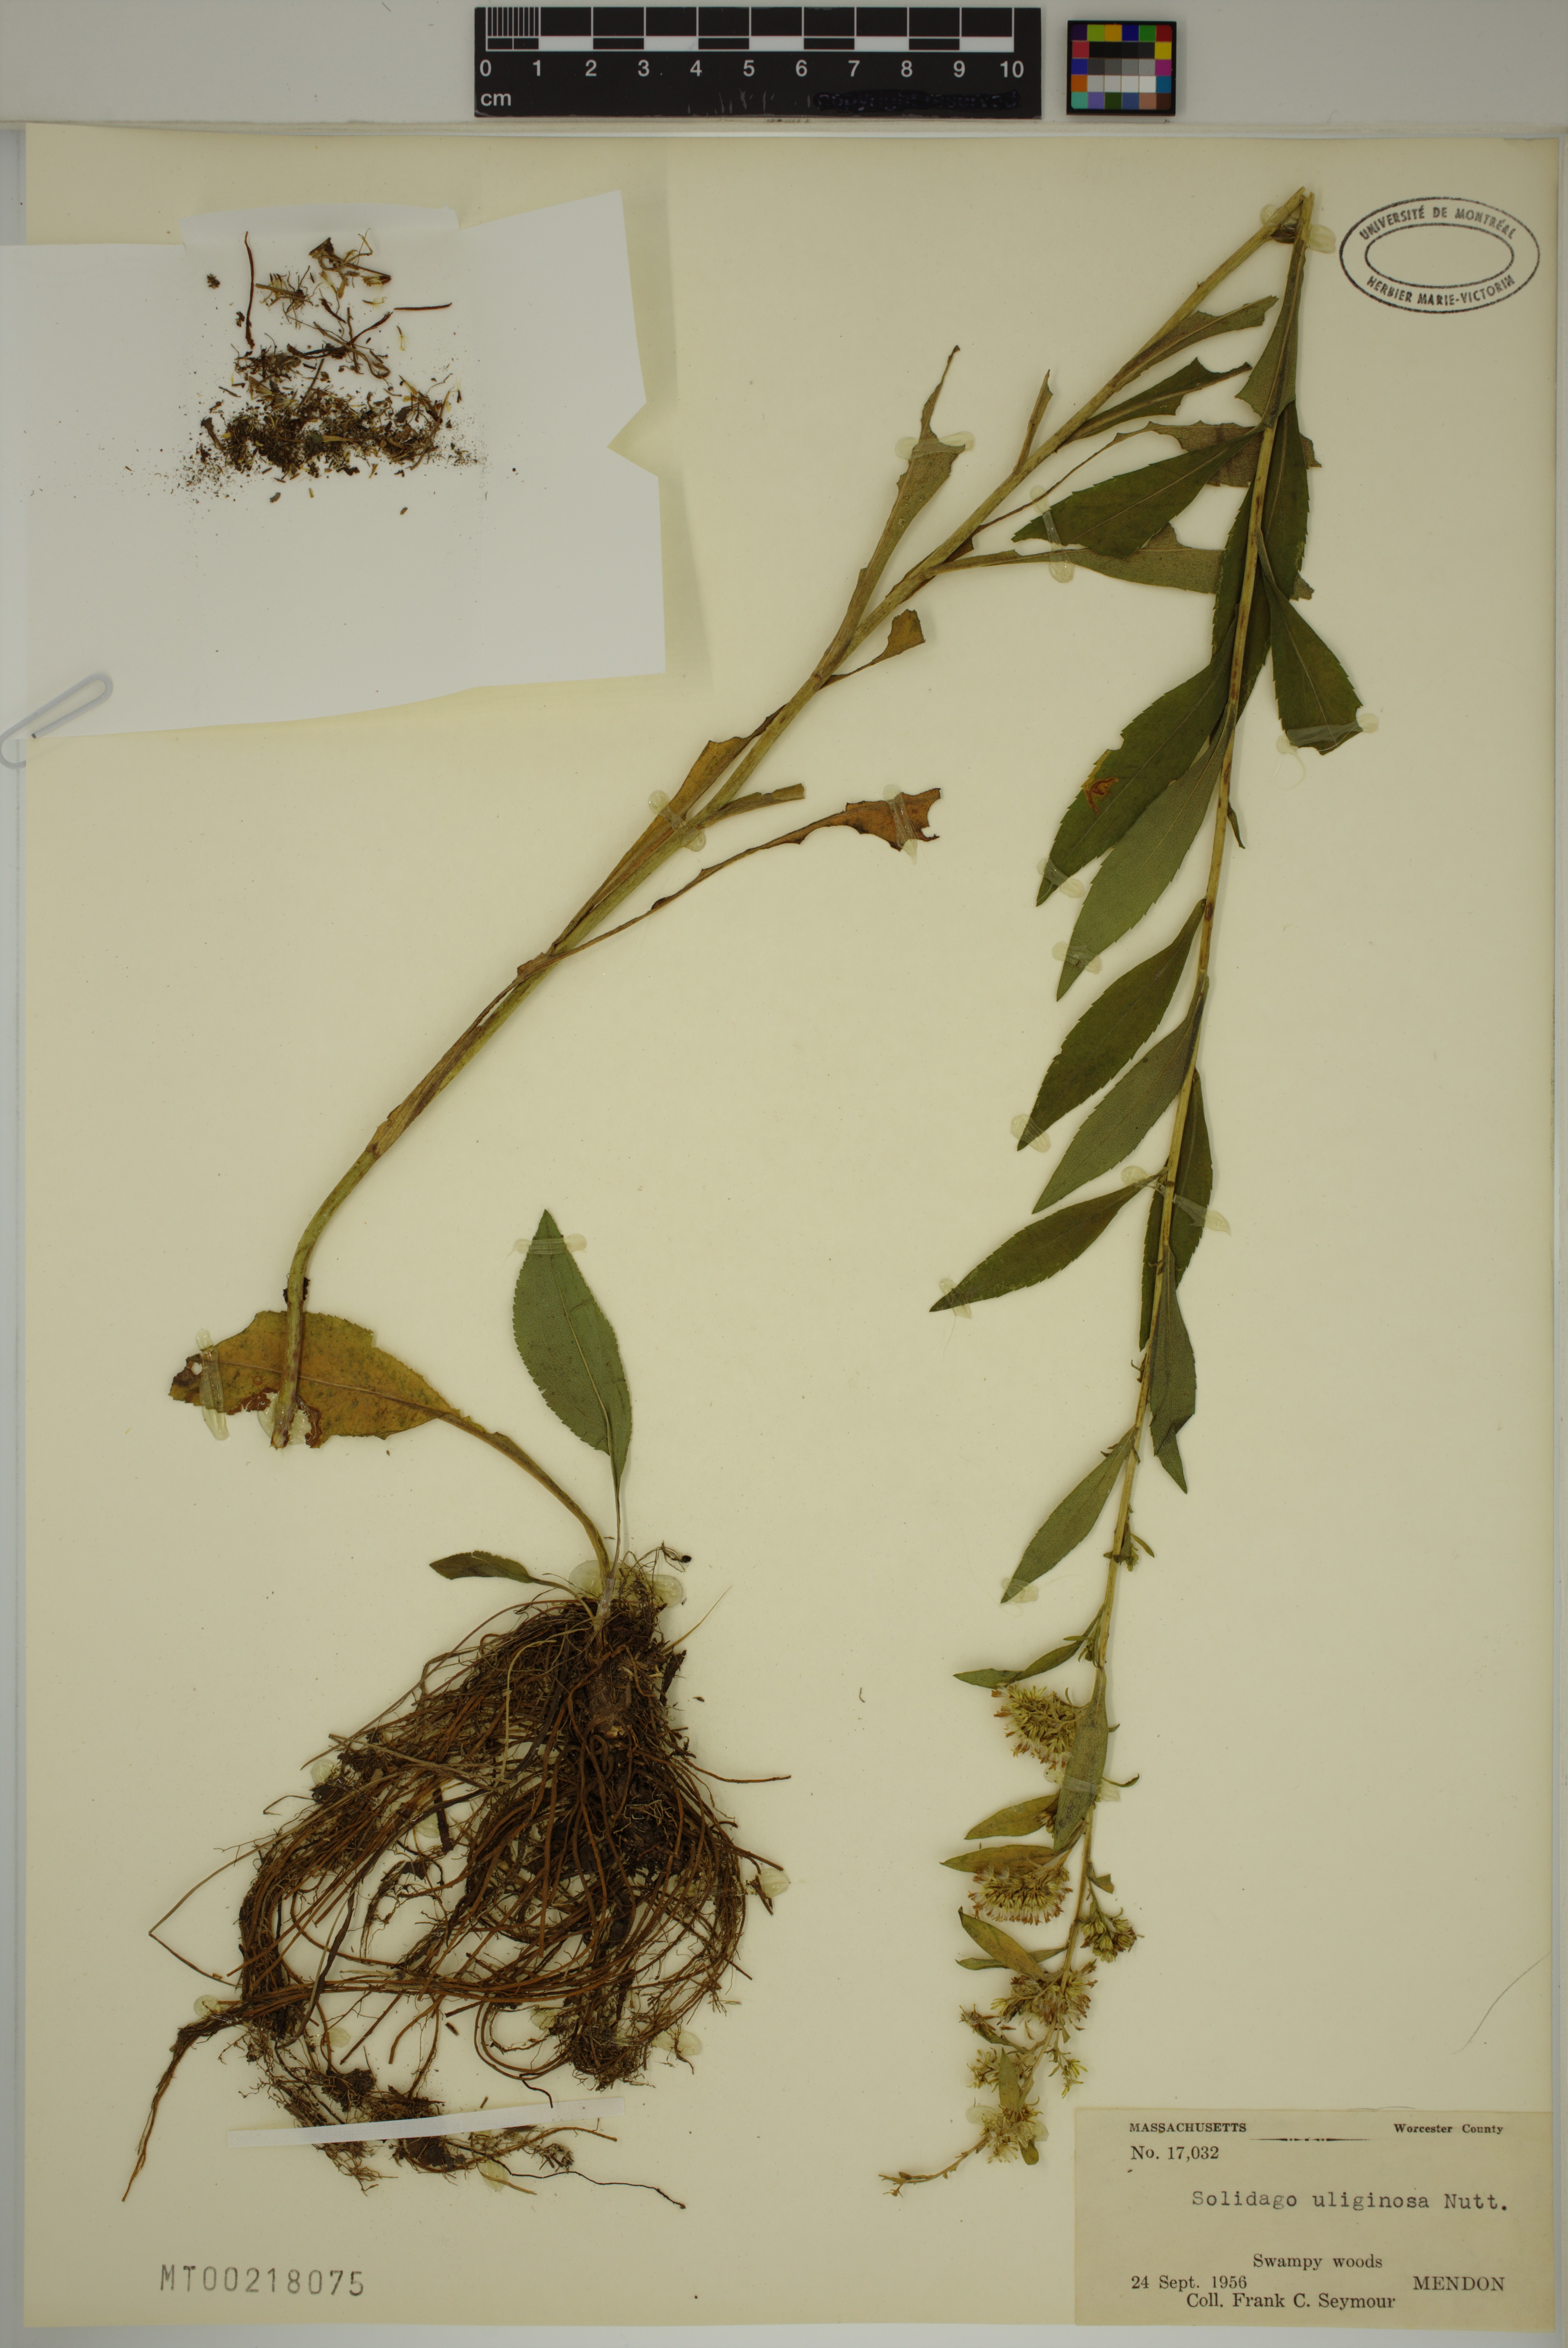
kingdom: Plantae
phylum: Tracheophyta
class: Magnoliopsida
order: Asterales
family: Asteraceae
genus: Solidago
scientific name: Solidago uliginosa
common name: Bog goldenrod
